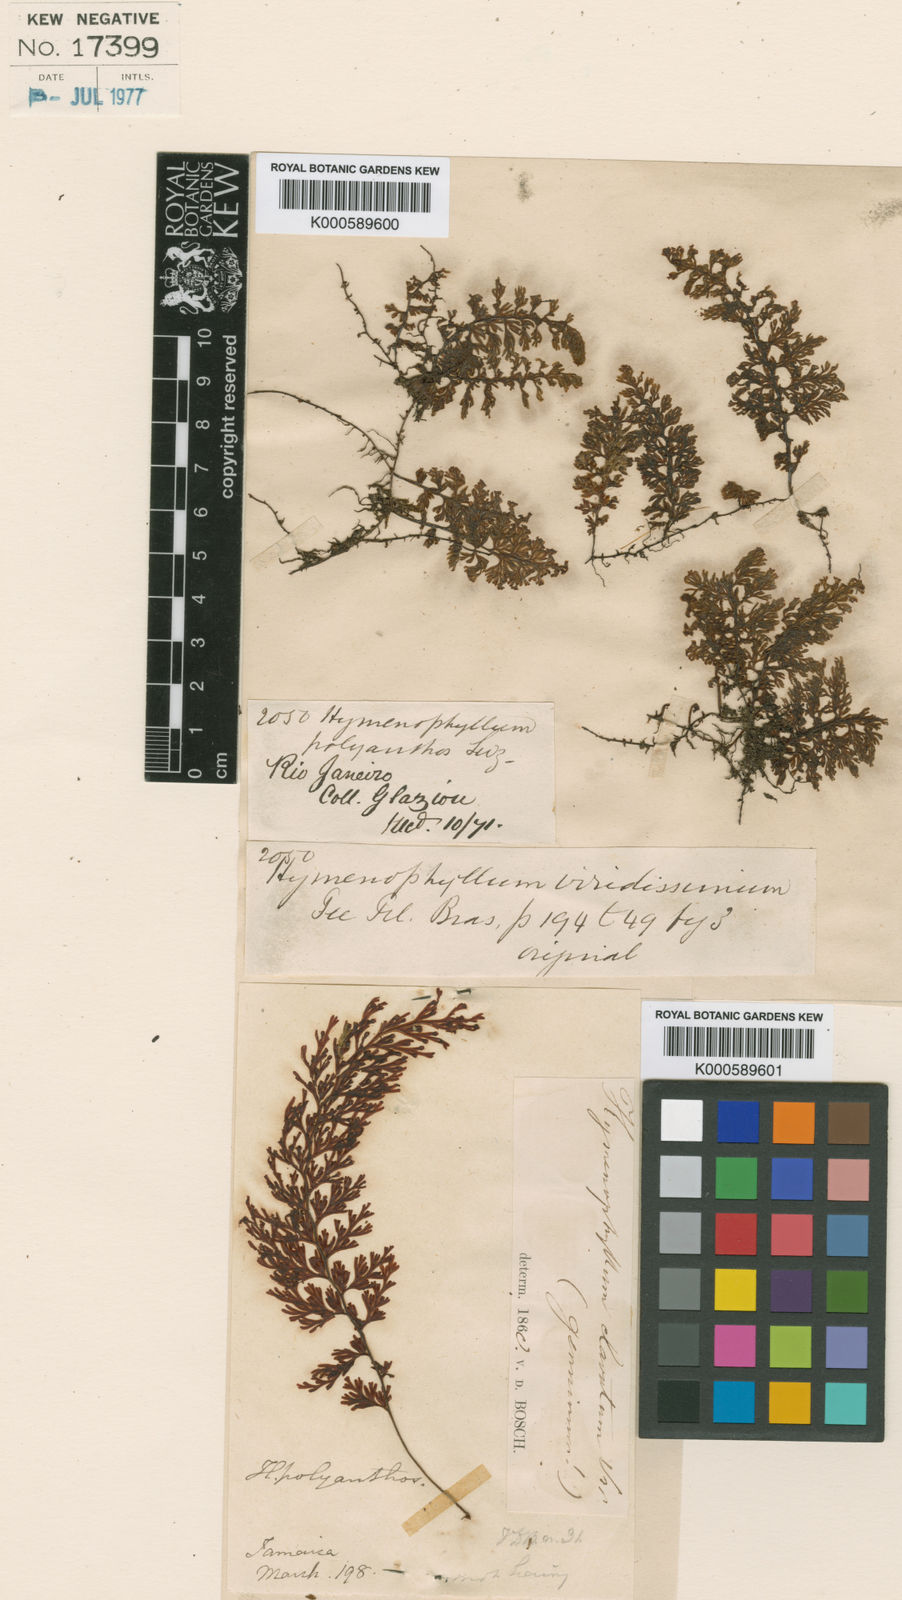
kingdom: Plantae
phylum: Tracheophyta
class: Polypodiopsida
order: Hymenophyllales
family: Hymenophyllaceae
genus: Hymenophyllum
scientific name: Hymenophyllum polyanthos
